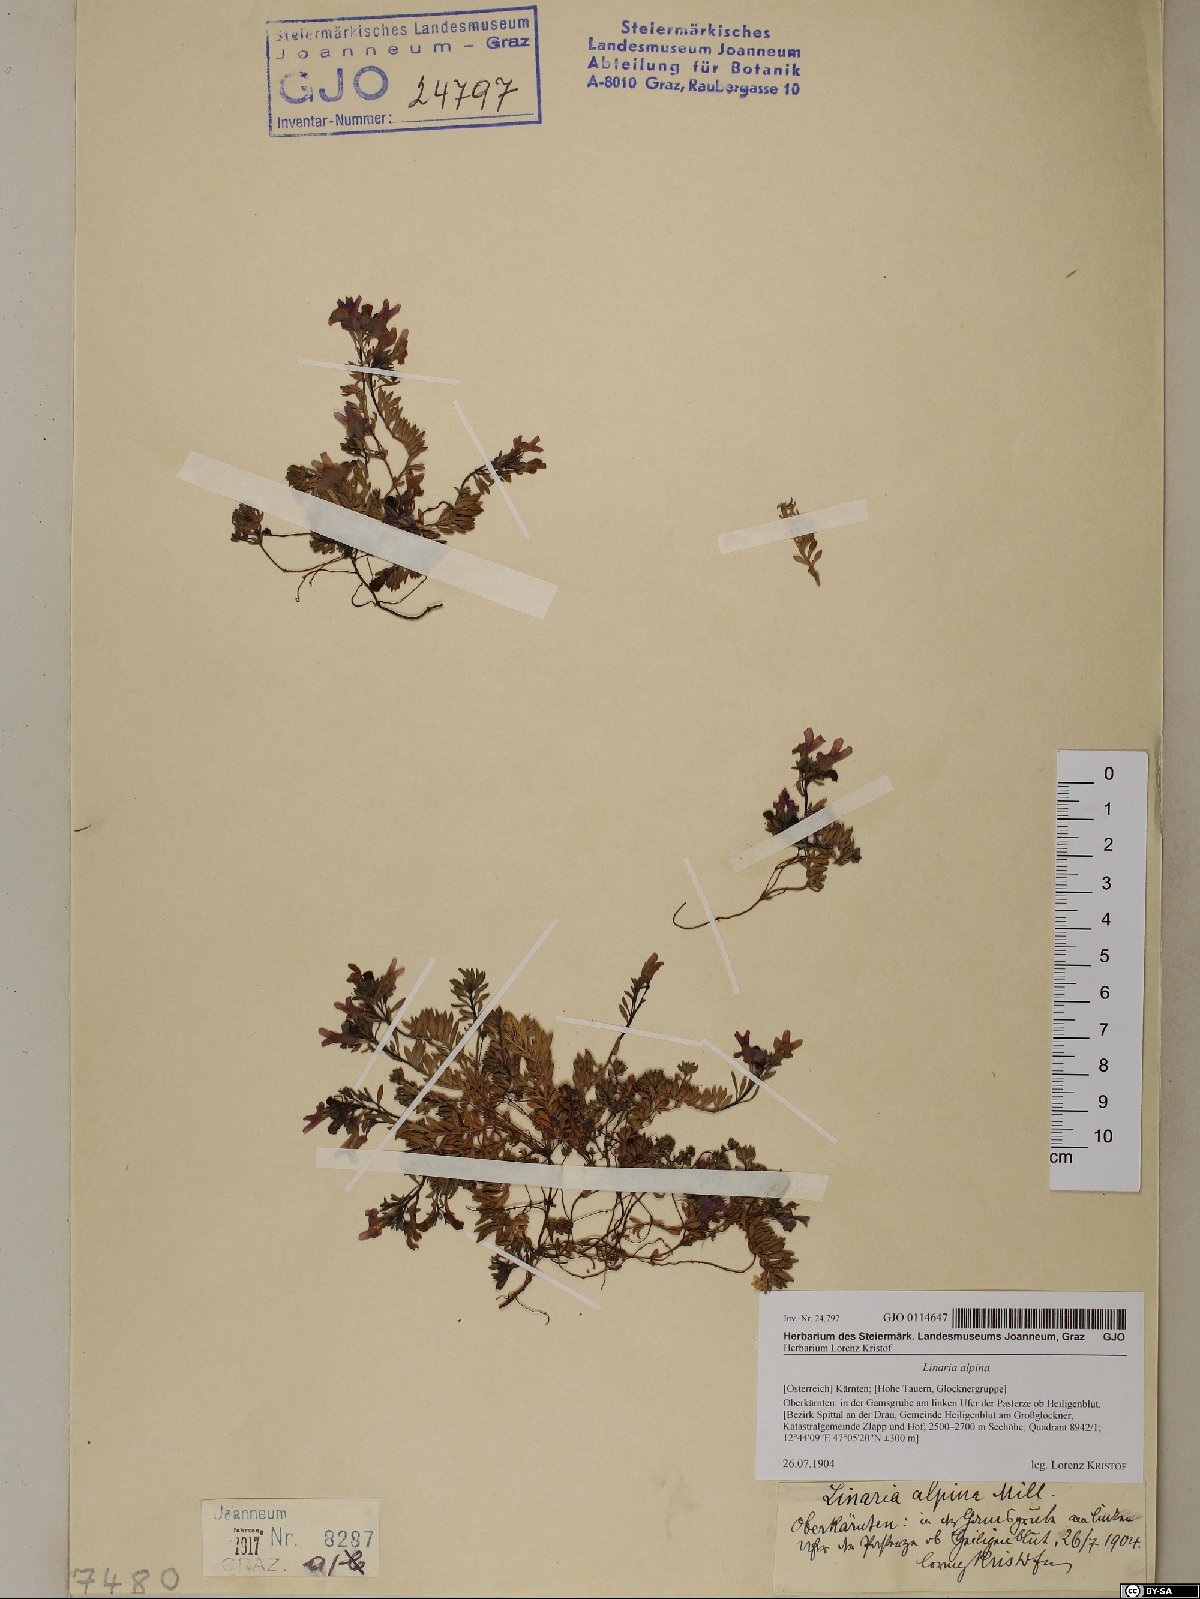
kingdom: Plantae
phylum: Tracheophyta
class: Magnoliopsida
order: Lamiales
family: Plantaginaceae
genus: Linaria
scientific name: Linaria alpina
